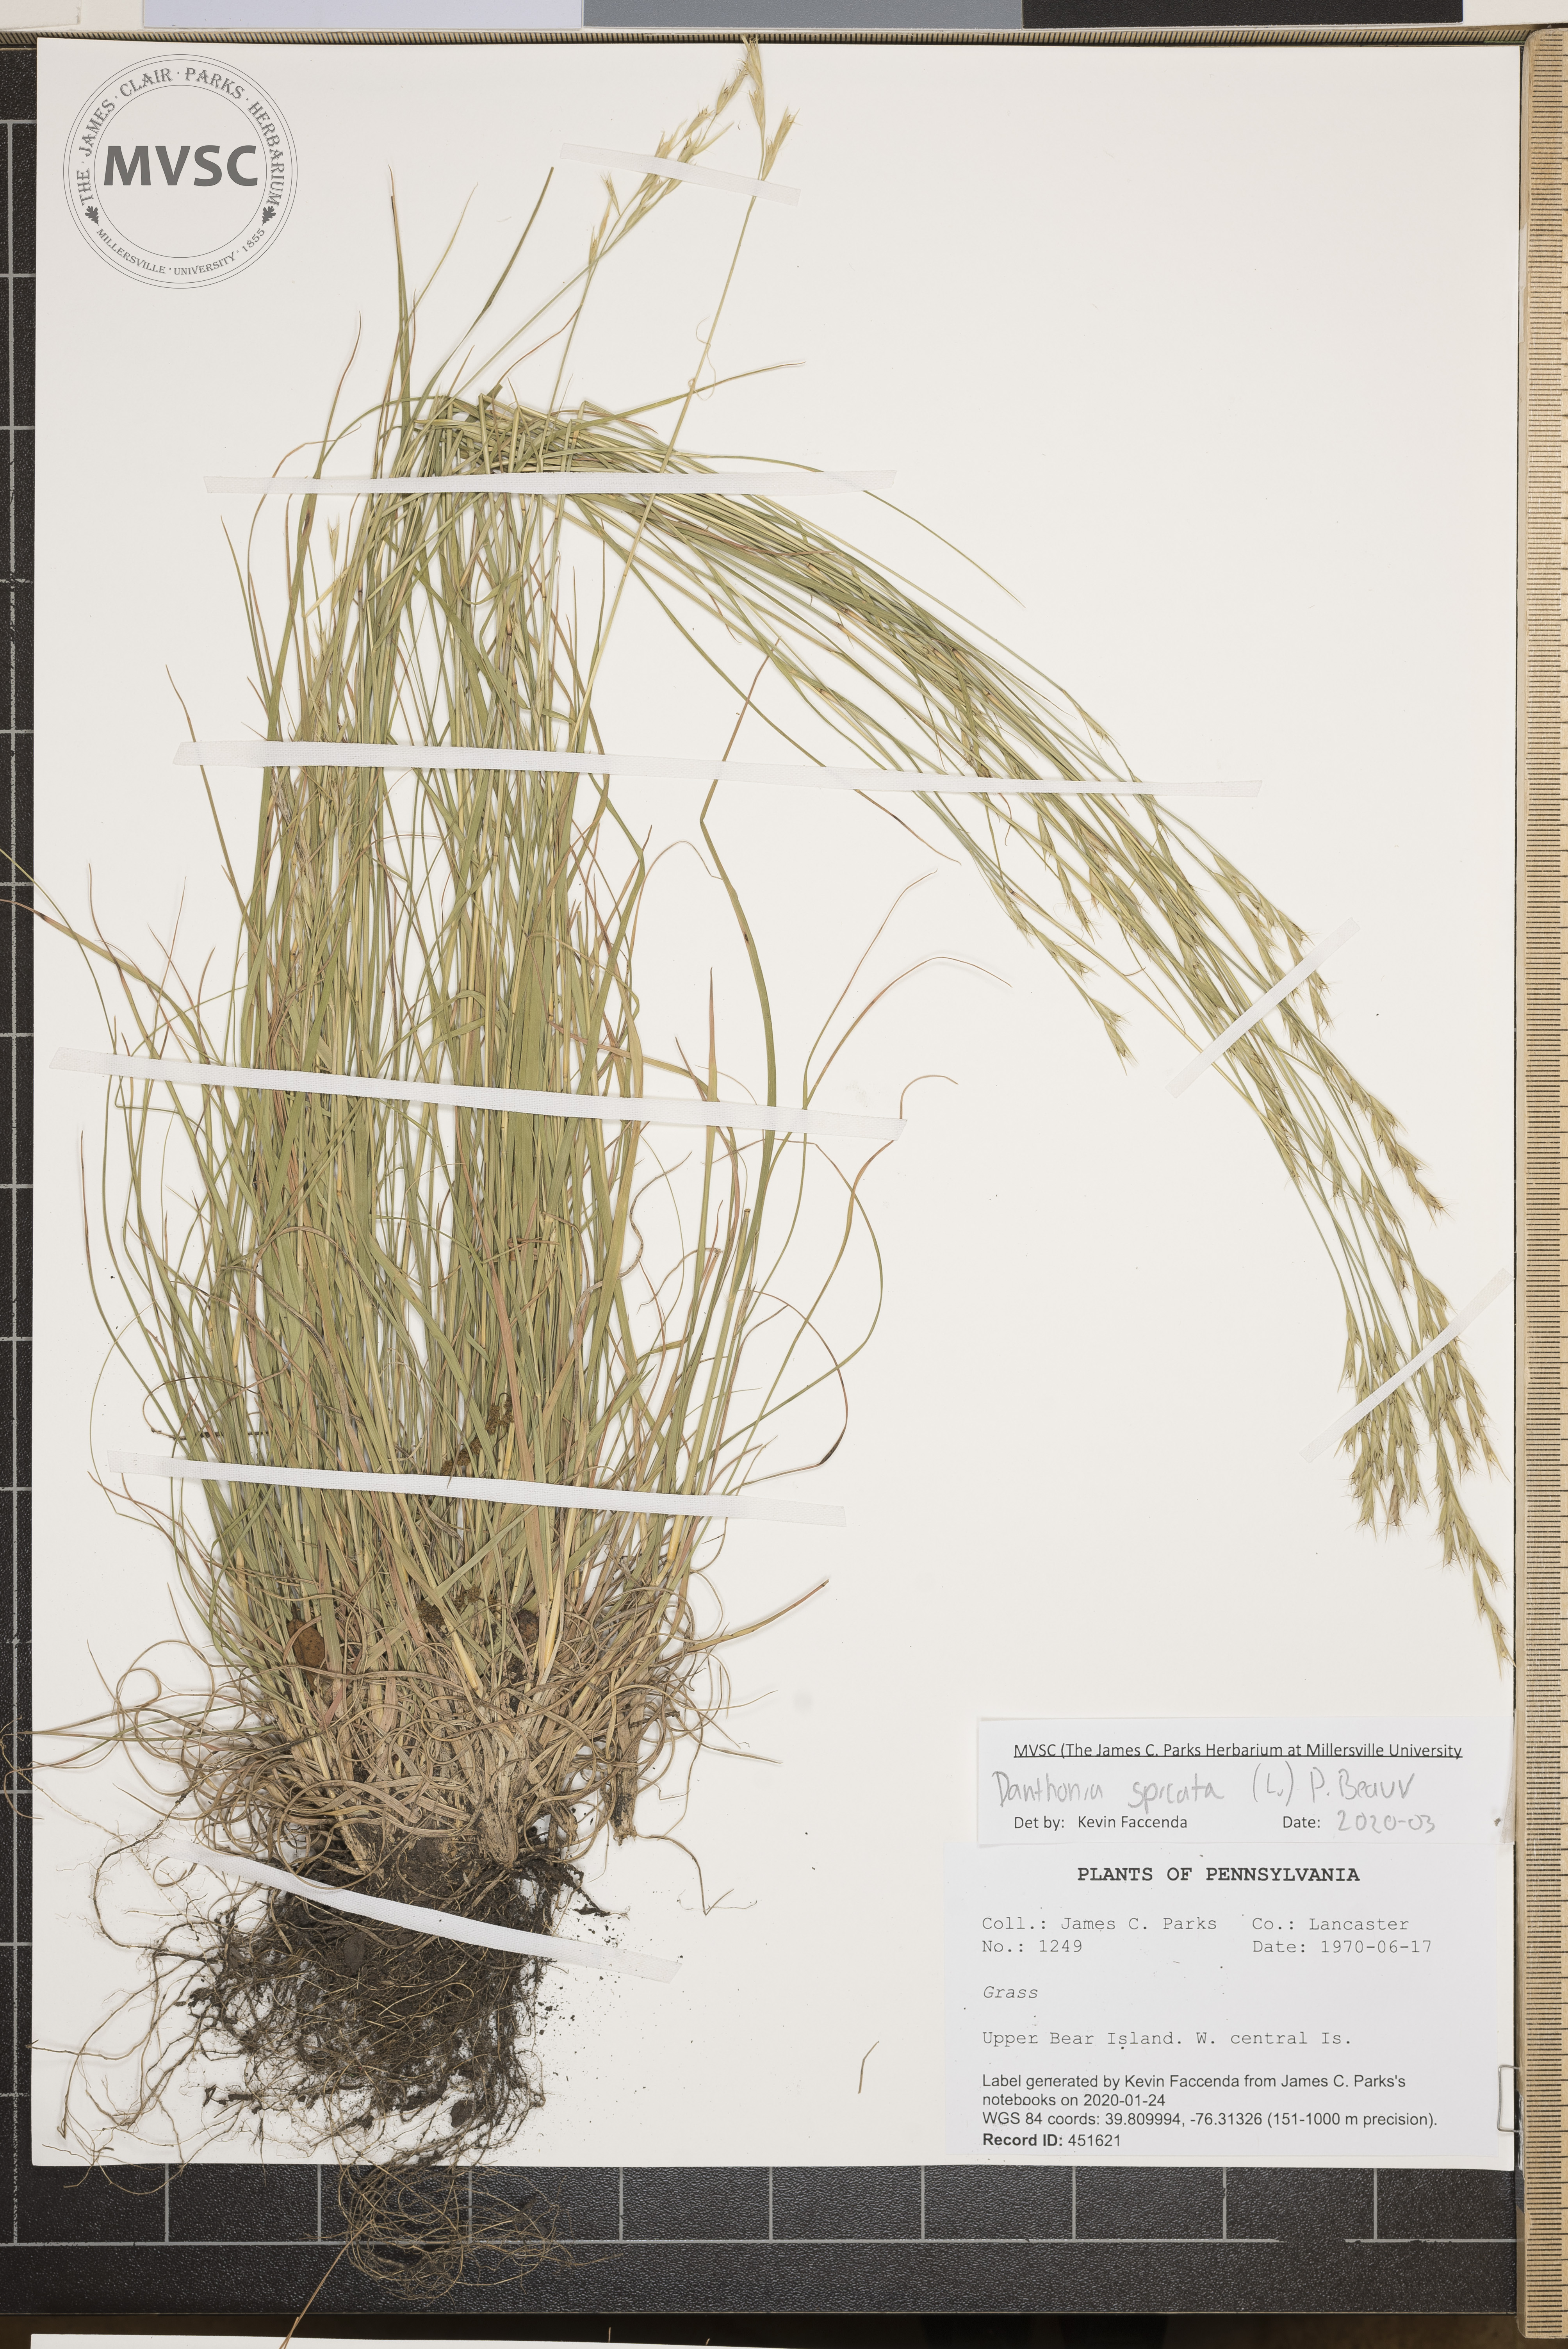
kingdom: Plantae
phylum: Tracheophyta
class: Liliopsida
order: Poales
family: Poaceae
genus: Danthonia
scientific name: Danthonia spicata
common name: Common wild oatgrass
